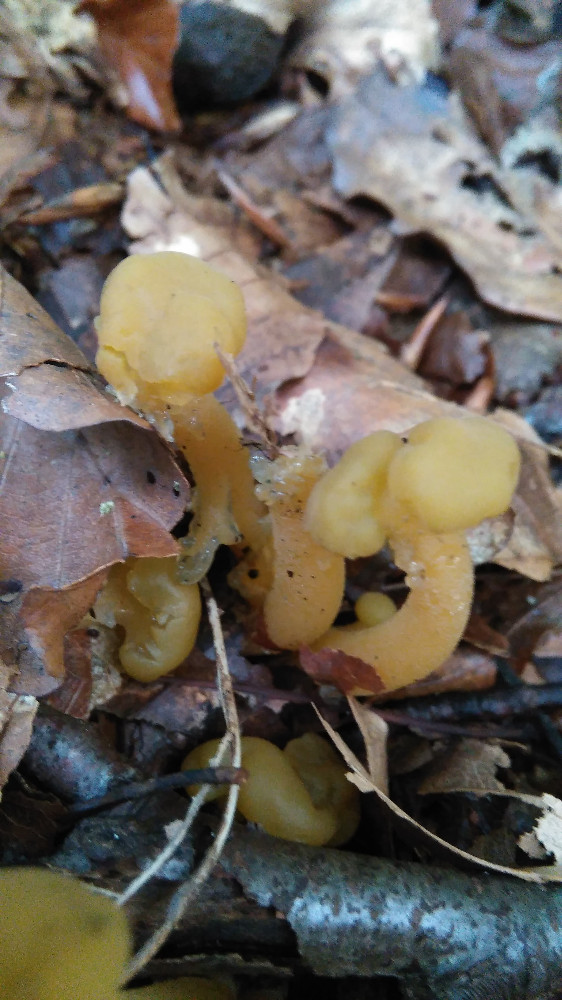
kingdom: Fungi
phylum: Ascomycota
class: Leotiomycetes
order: Leotiales
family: Leotiaceae
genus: Leotia
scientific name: Leotia lubrica
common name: ravsvamp
